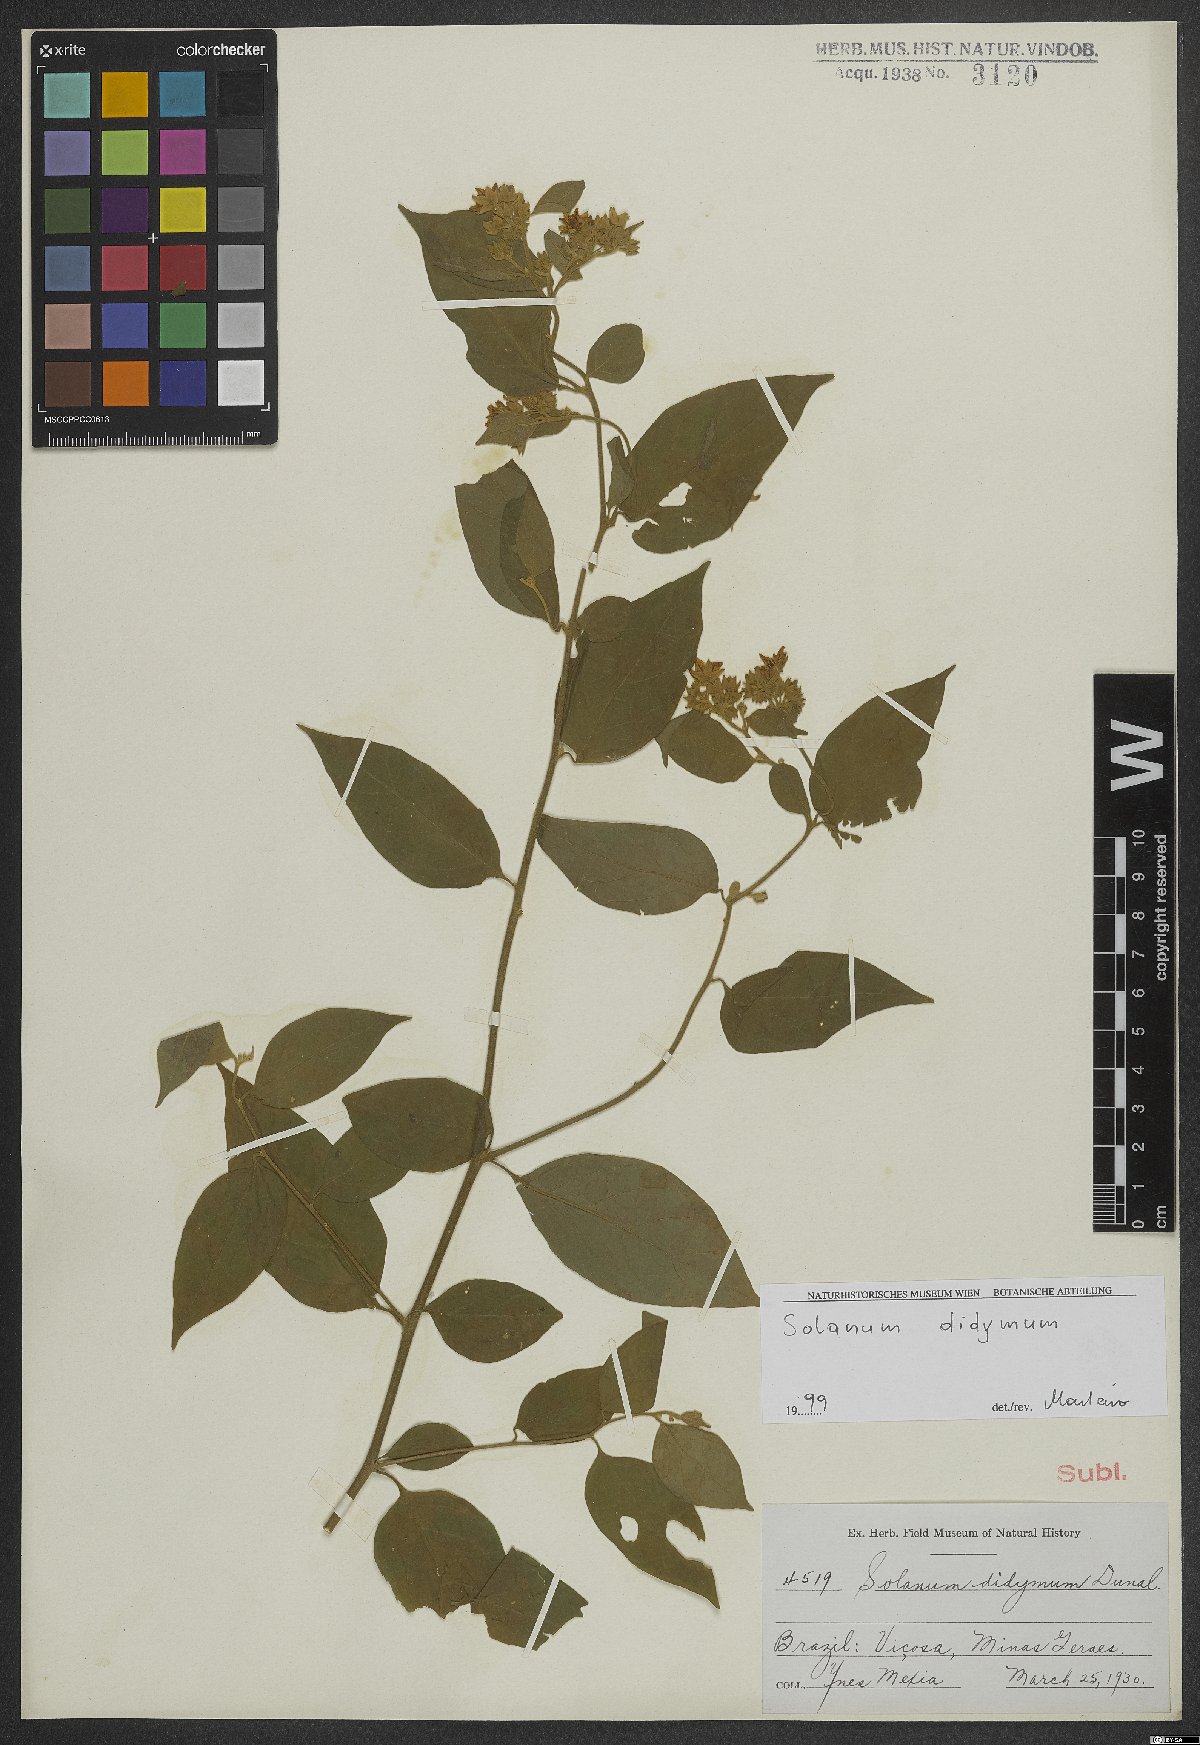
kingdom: Plantae
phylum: Tracheophyta
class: Magnoliopsida
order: Solanales
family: Solanaceae
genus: Solanum
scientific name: Solanum didymum
